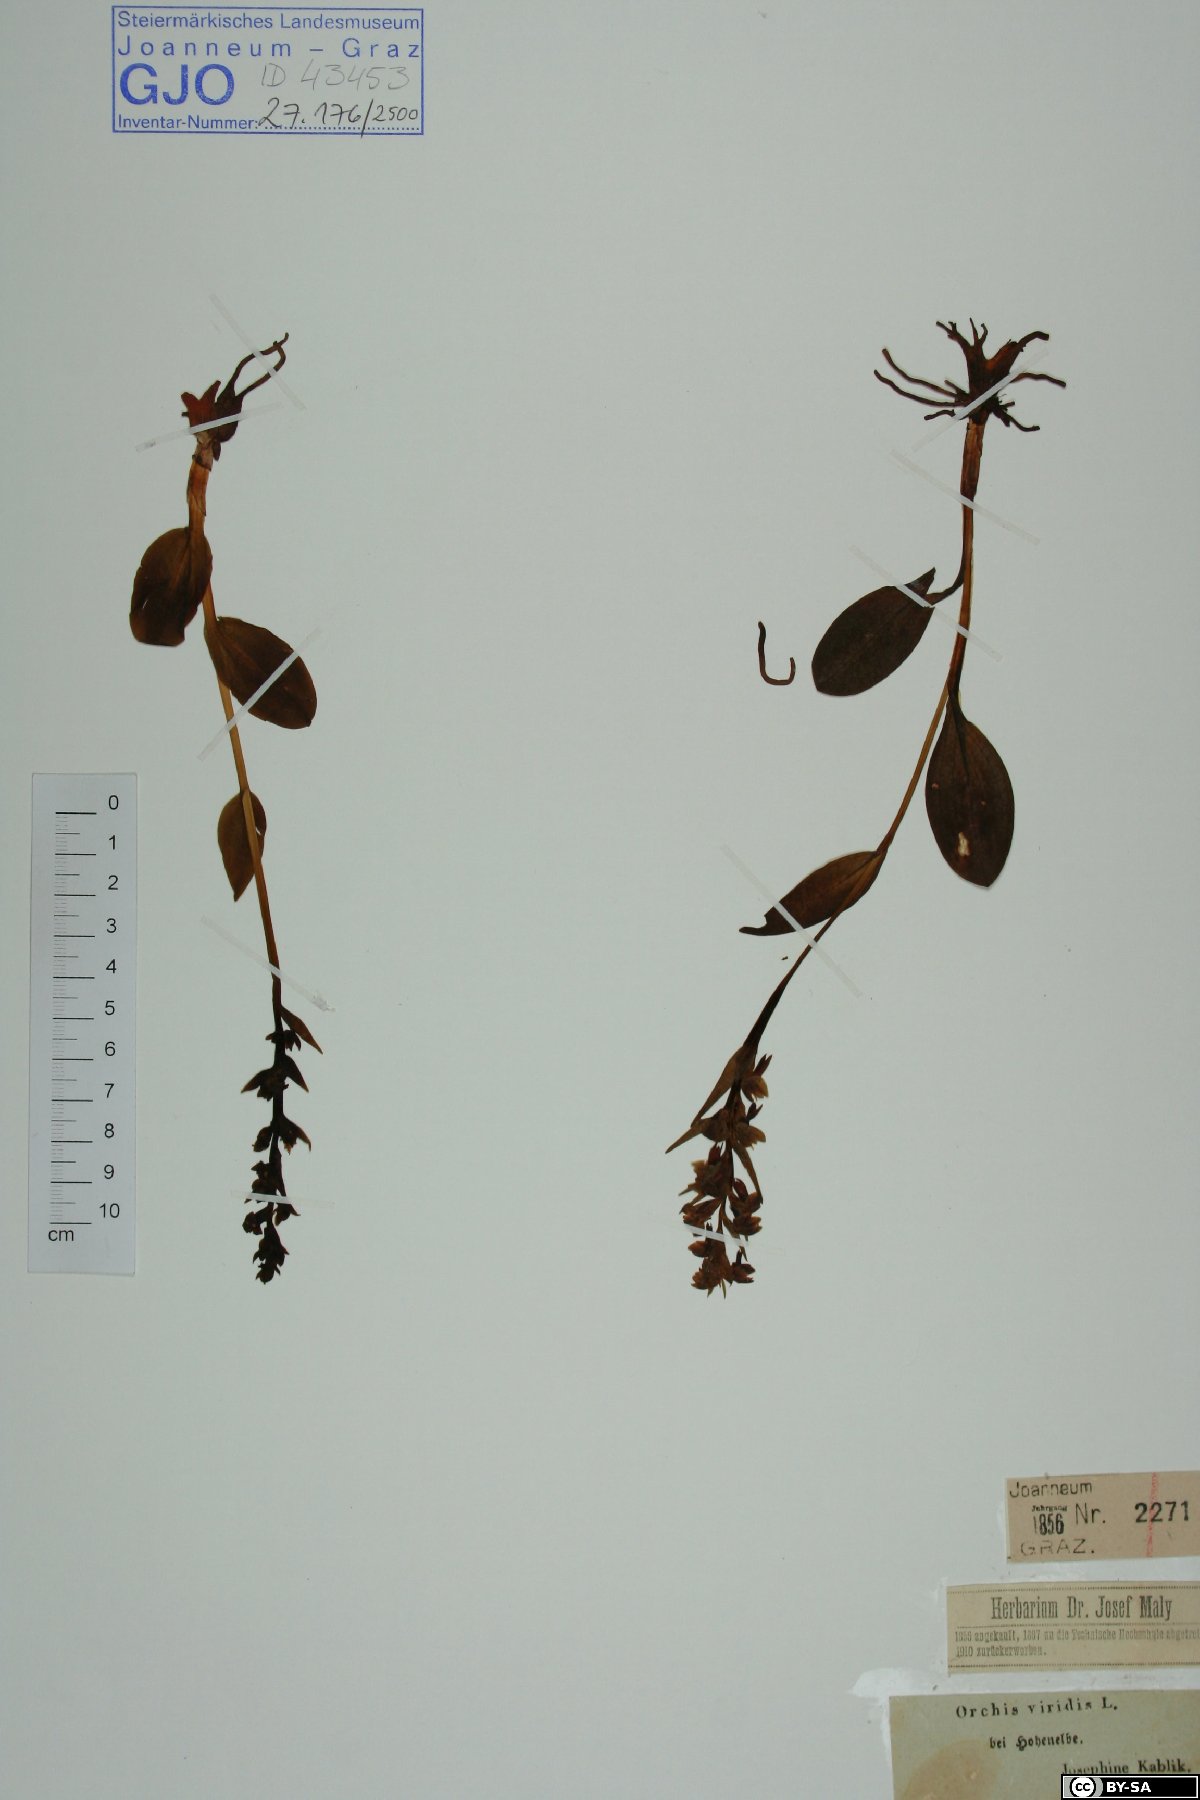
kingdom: Plantae
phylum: Tracheophyta
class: Liliopsida
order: Asparagales
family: Orchidaceae
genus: Dactylorhiza
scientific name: Dactylorhiza viridis
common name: Longbract frog orchid
